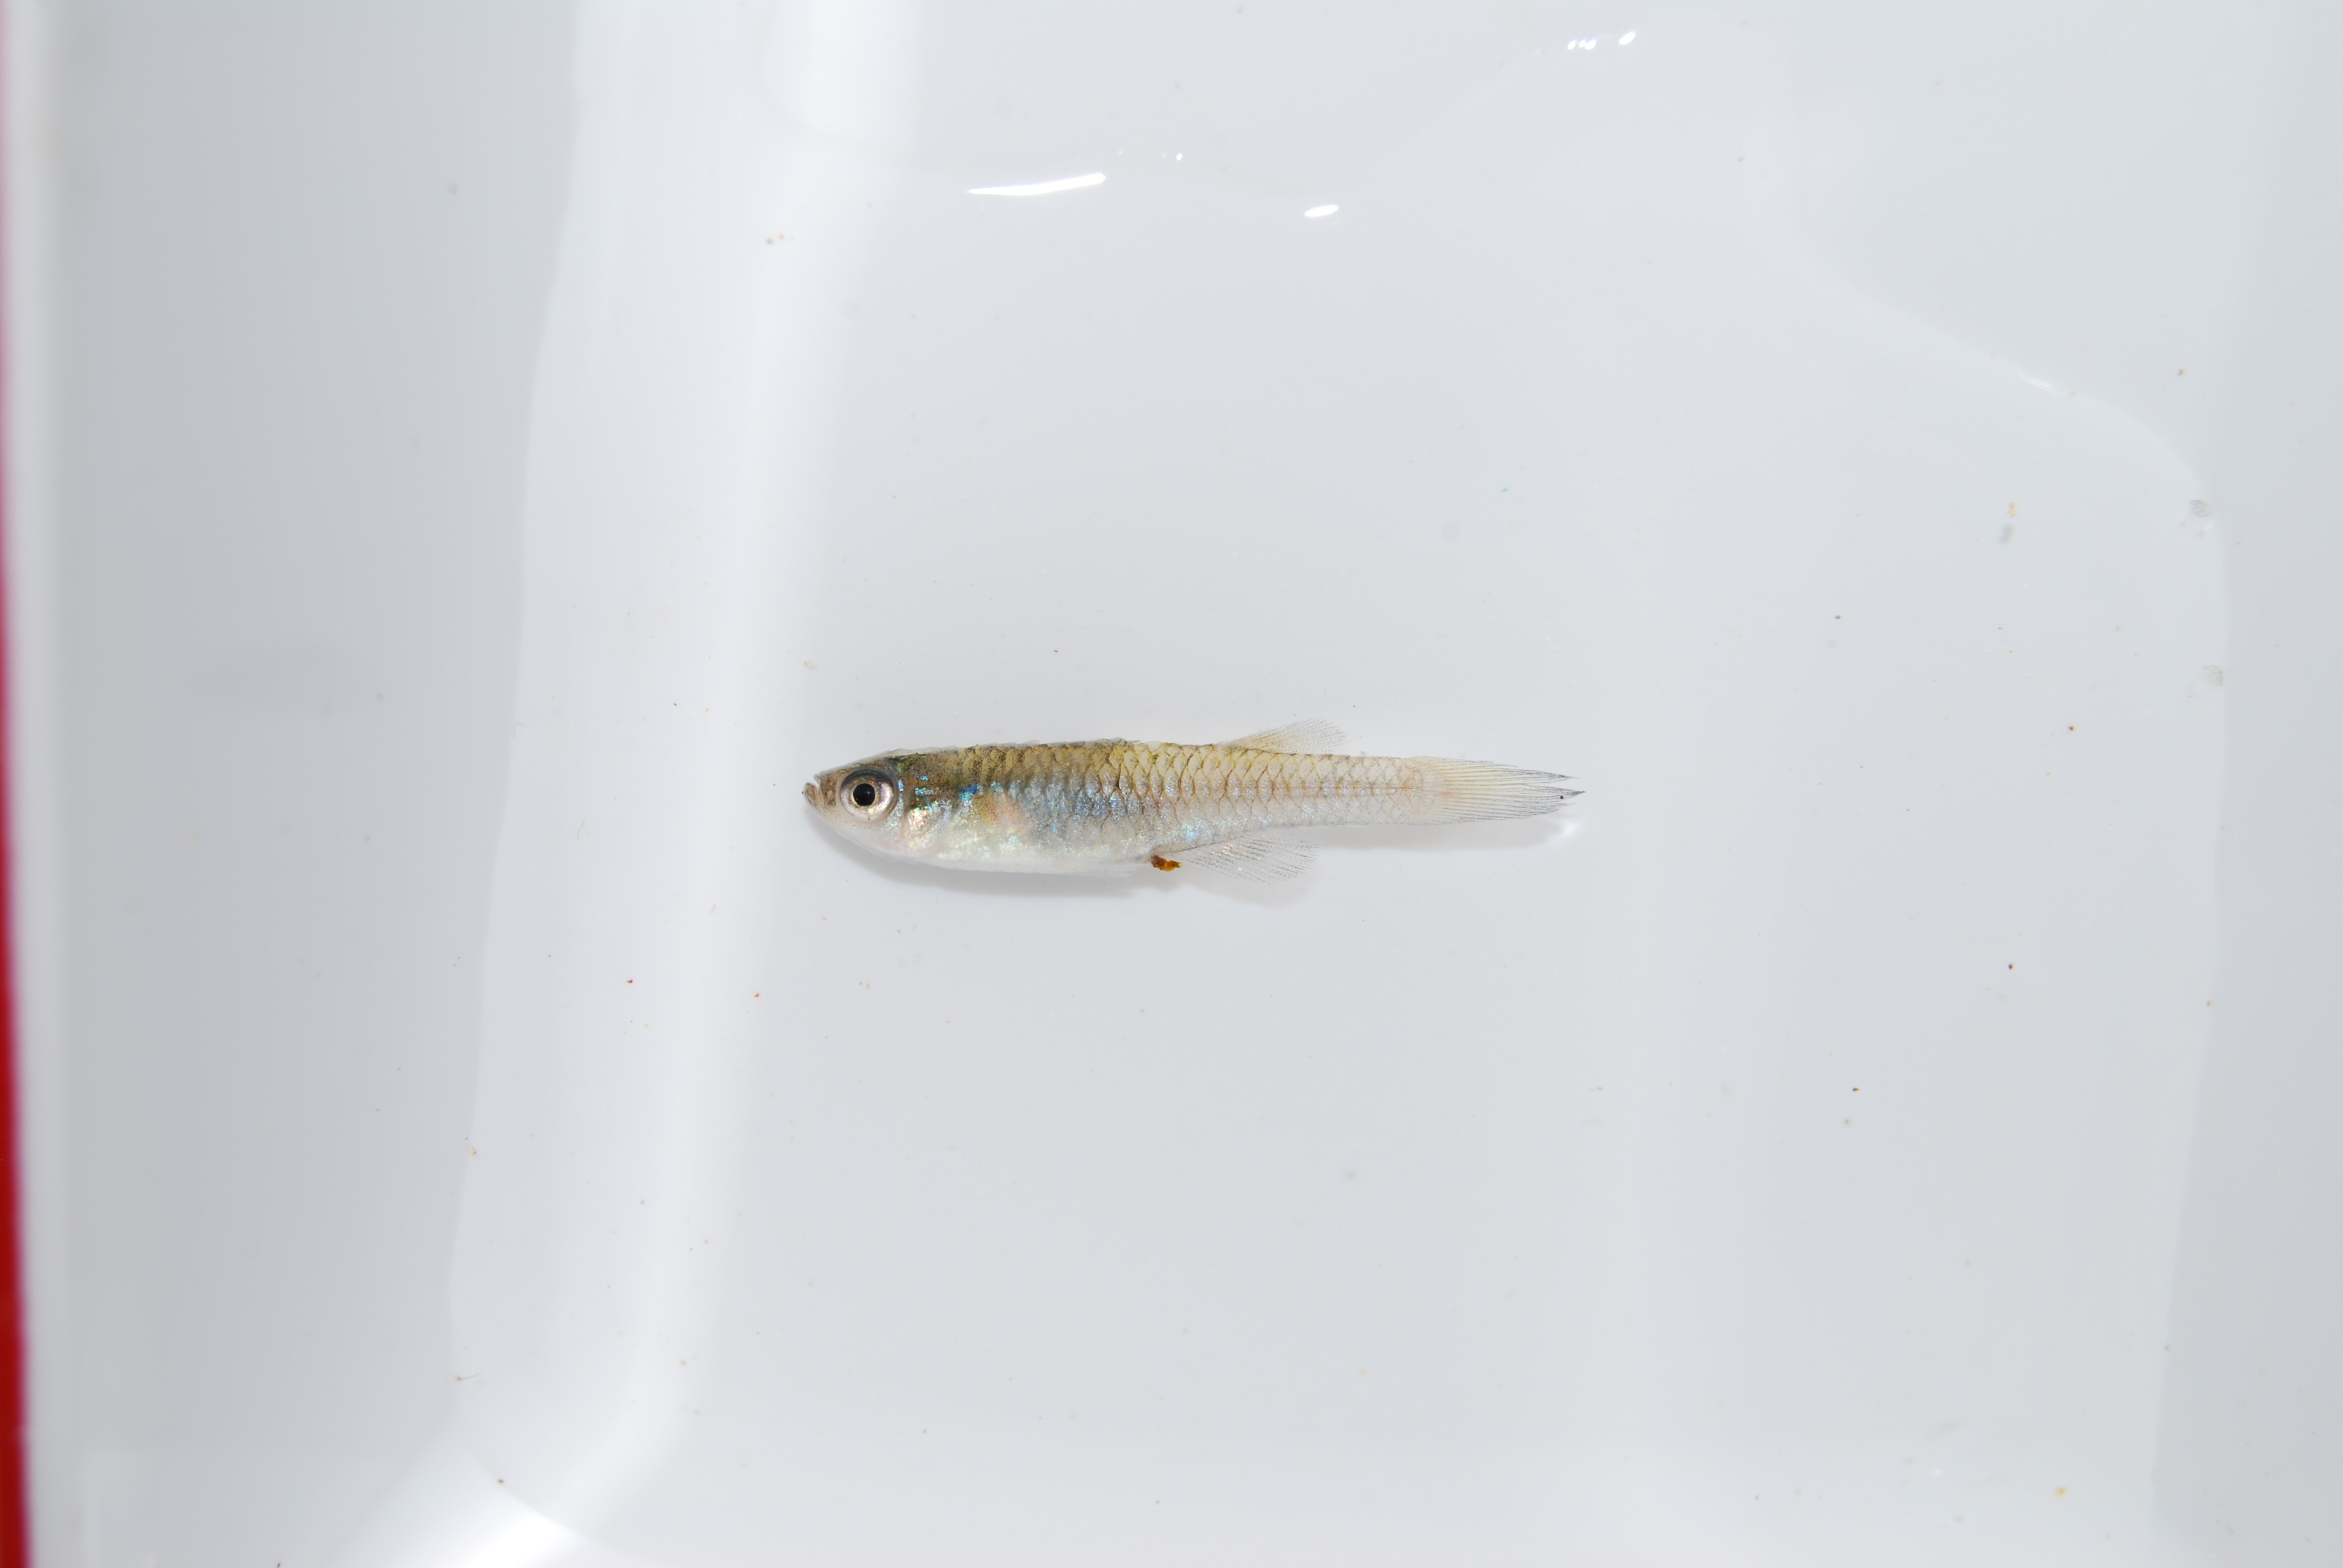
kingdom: Animalia
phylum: Chordata
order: Cyprinodontiformes
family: Poeciliidae
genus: Aplocheilichthys
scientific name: Aplocheilichthys
